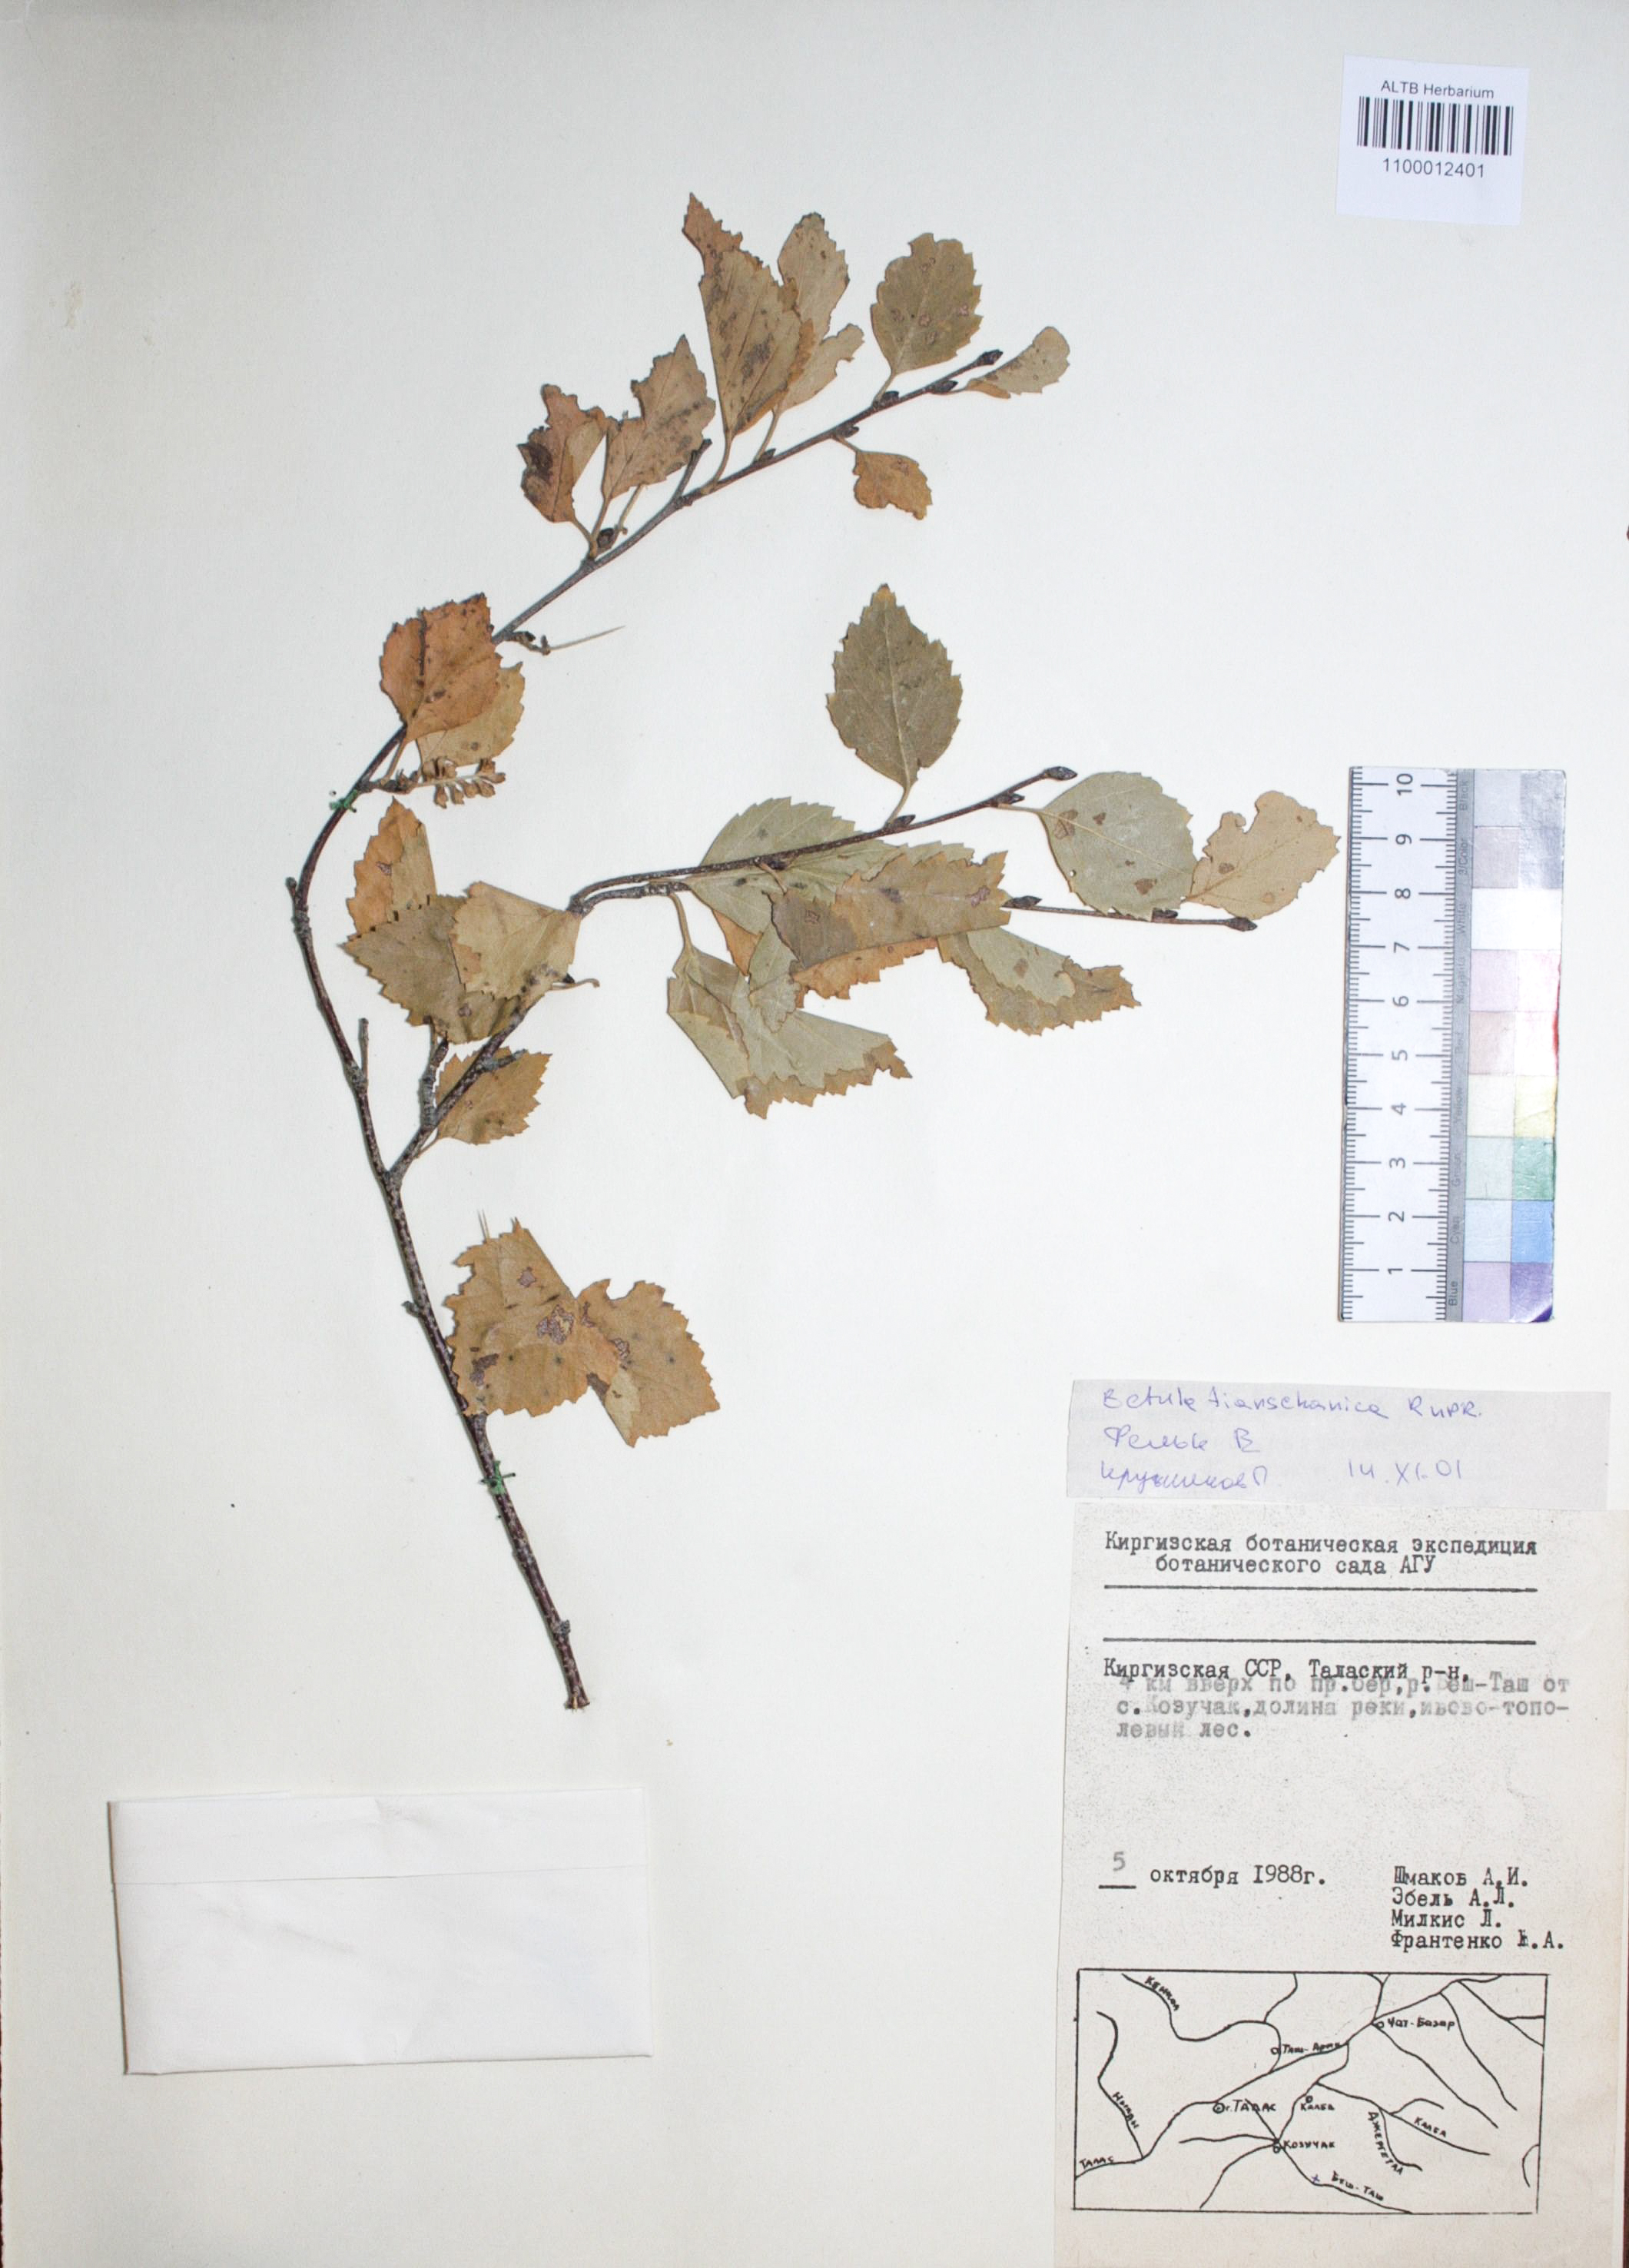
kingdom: Plantae
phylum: Tracheophyta
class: Magnoliopsida
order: Fagales
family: Betulaceae
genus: Betula
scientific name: Betula tianschanica
